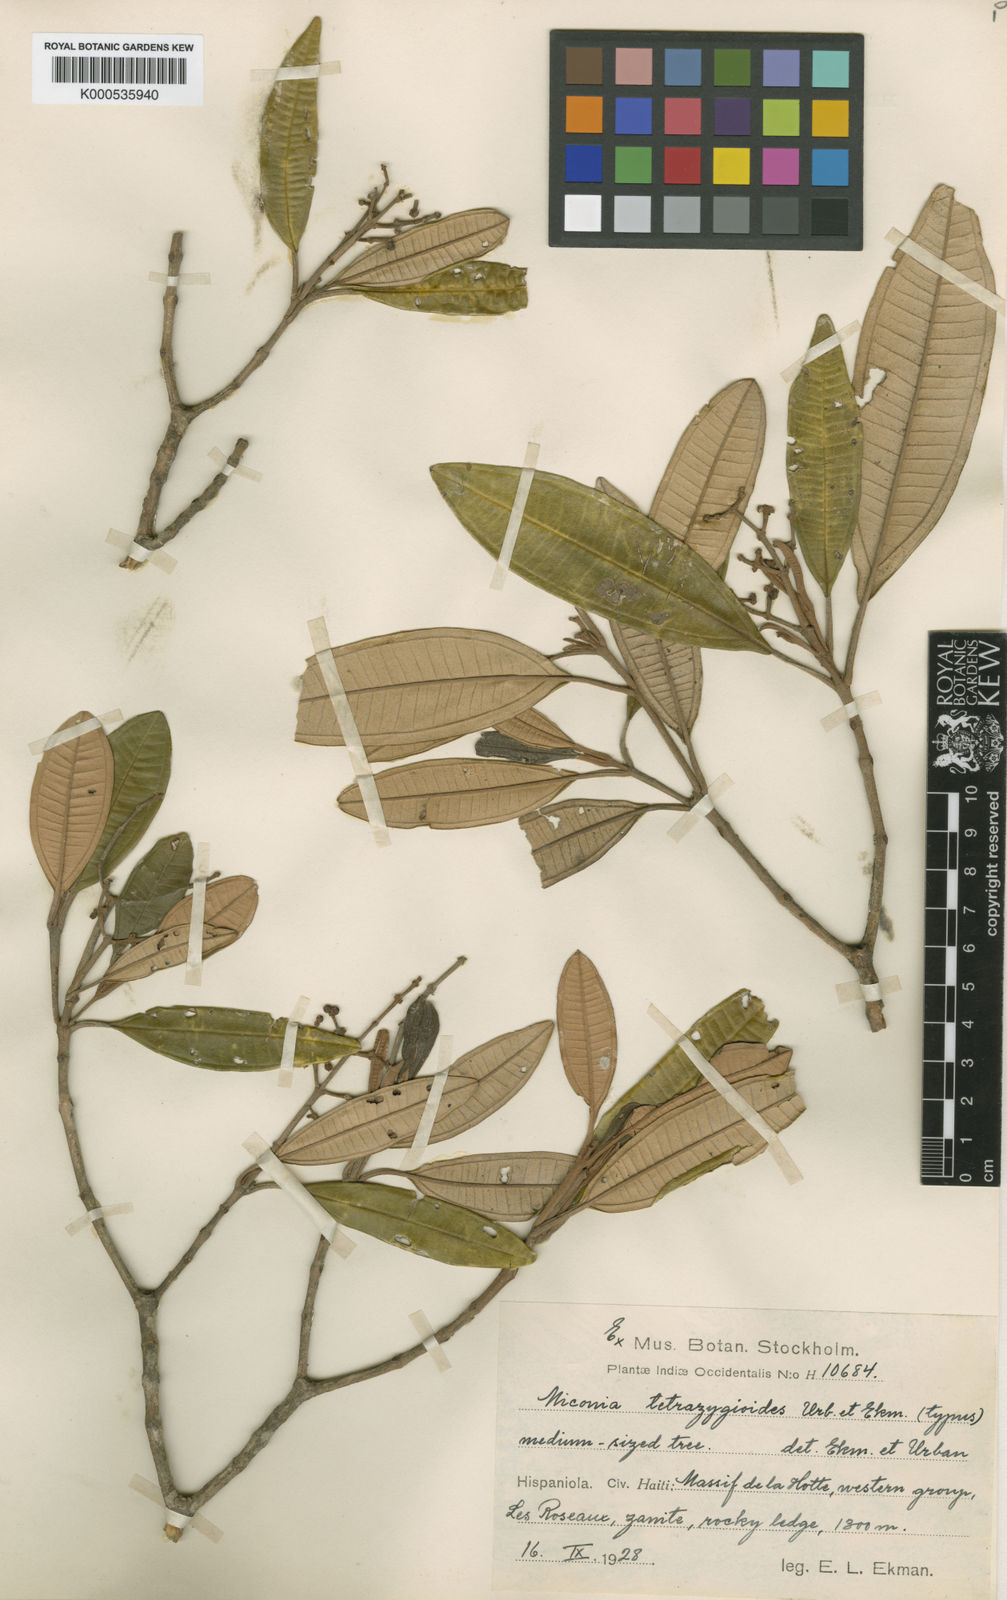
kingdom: Plantae
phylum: Tracheophyta
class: Magnoliopsida
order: Myrtales
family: Melastomataceae
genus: Miconia
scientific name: Miconia tetrazygioides
